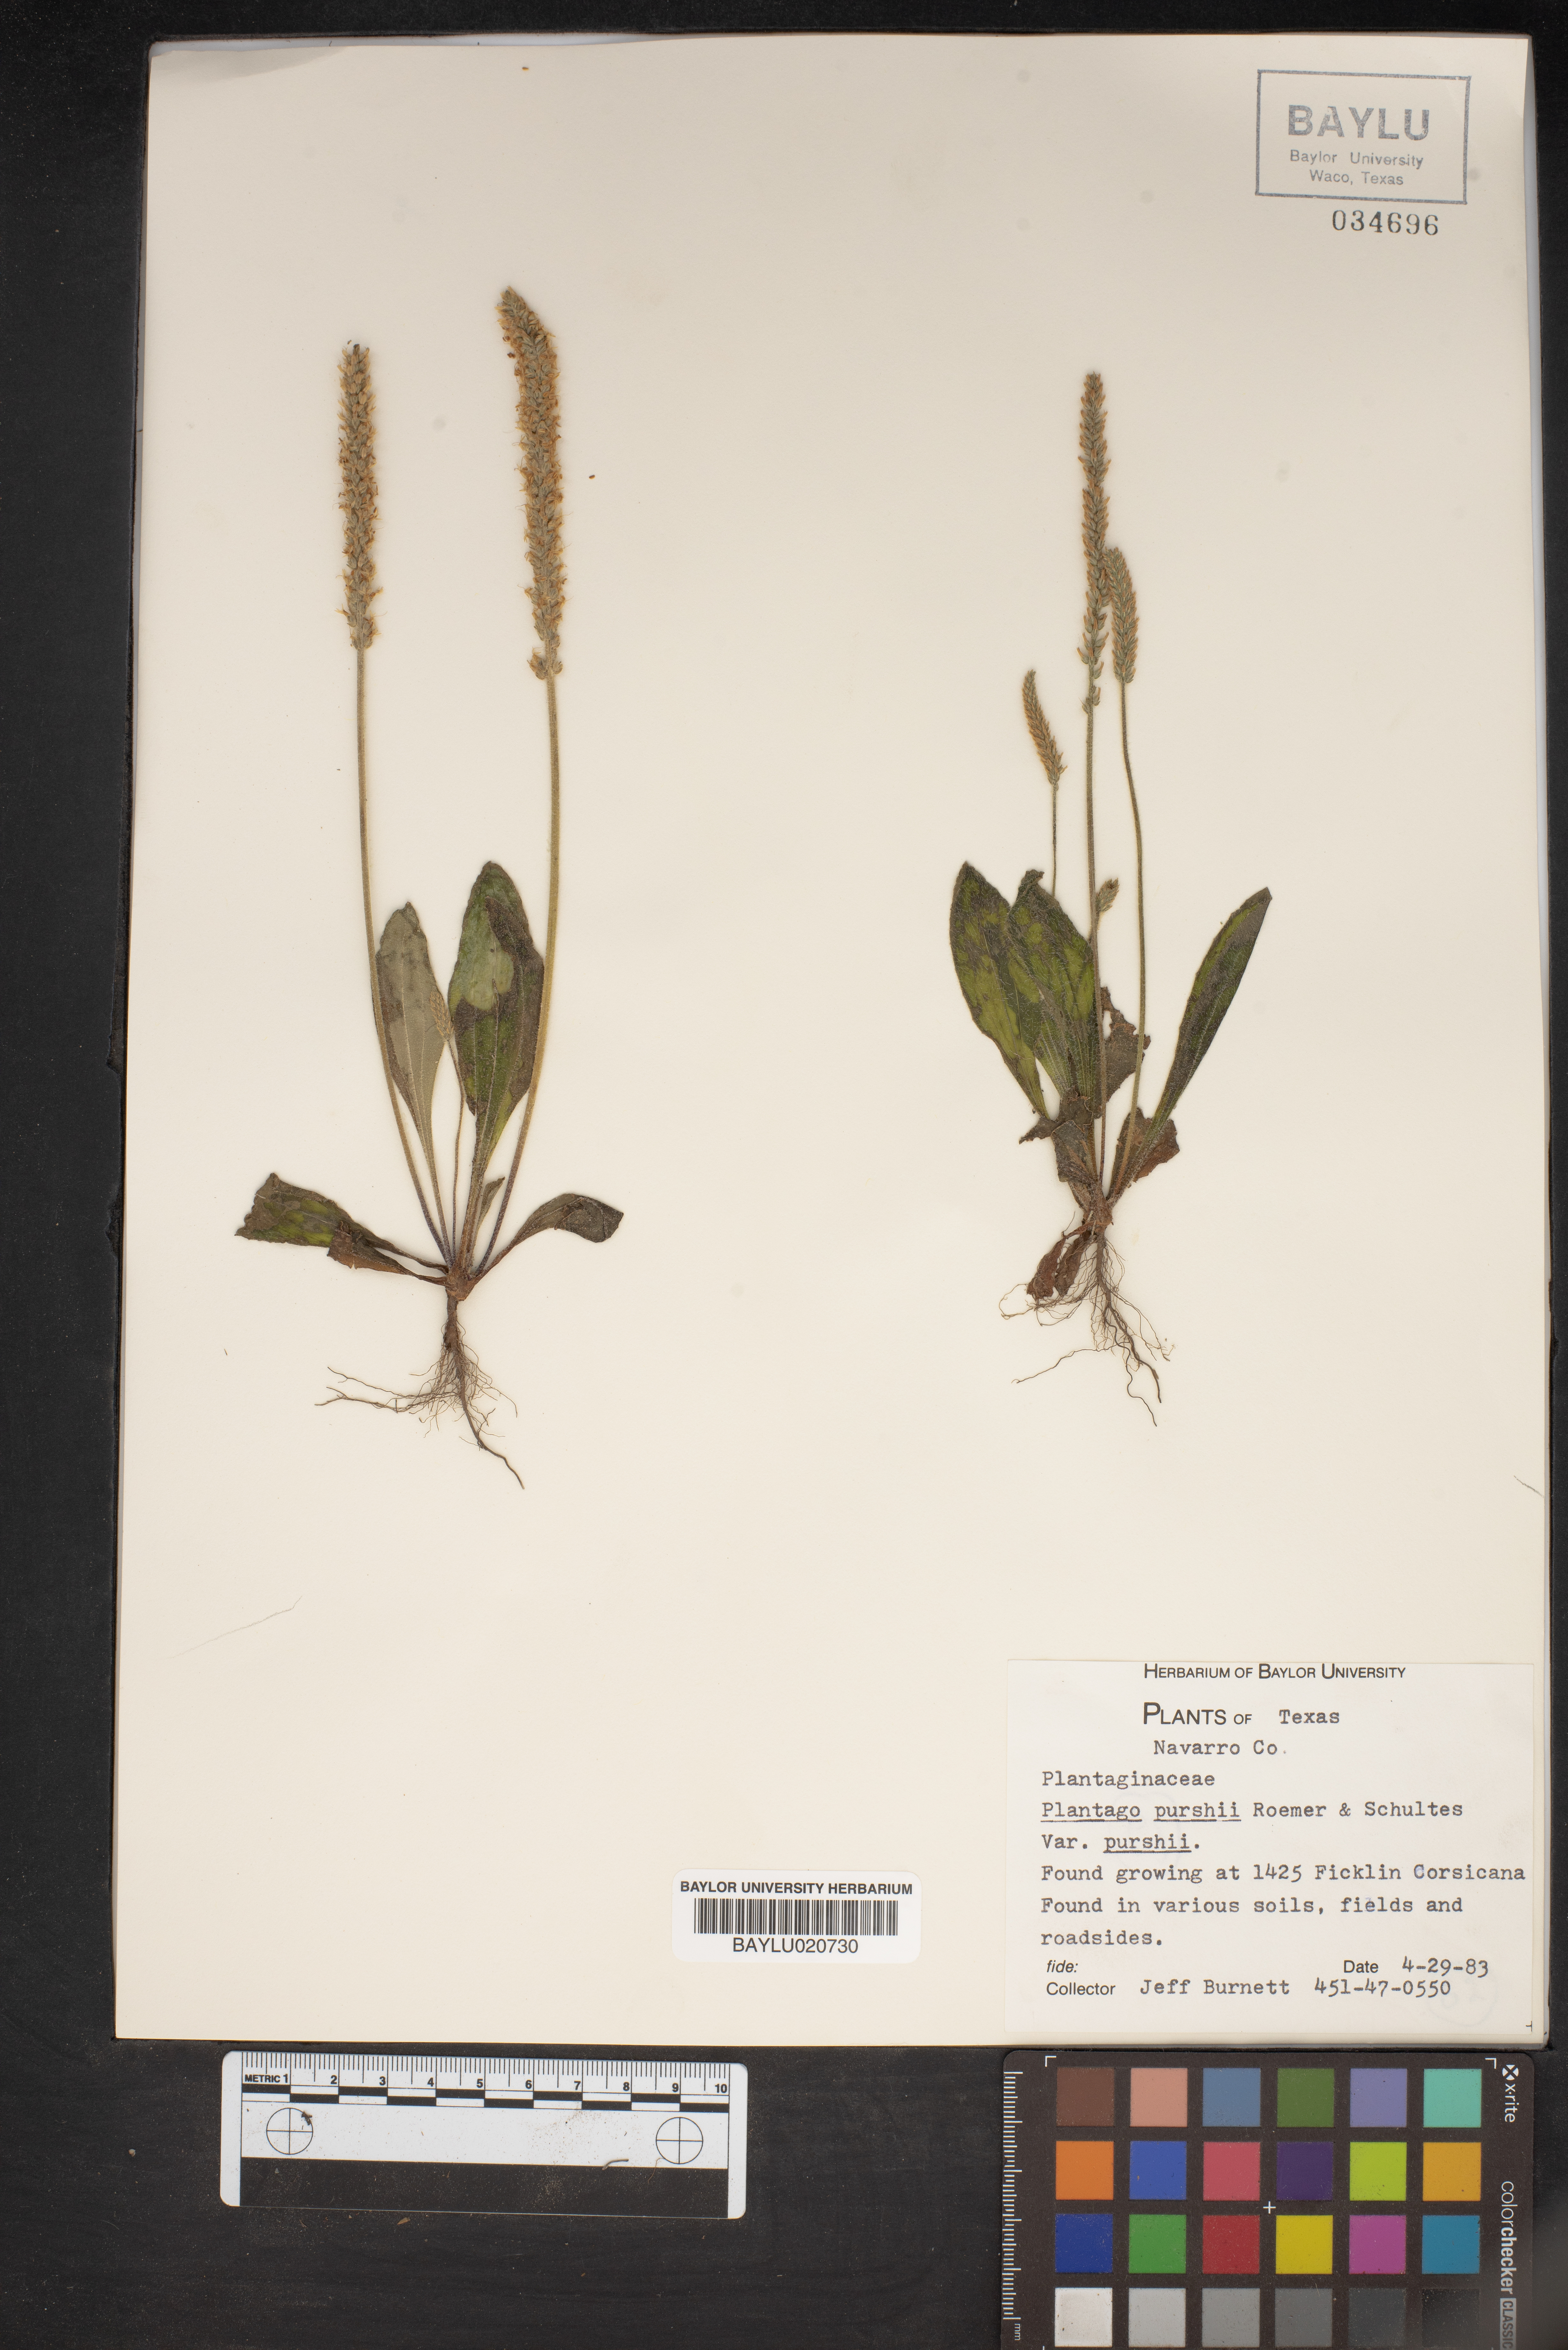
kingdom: Plantae
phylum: Tracheophyta
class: Magnoliopsida
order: Lamiales
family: Plantaginaceae
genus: Plantago
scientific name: Plantago patagonica
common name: Patagonia indian-wheat
